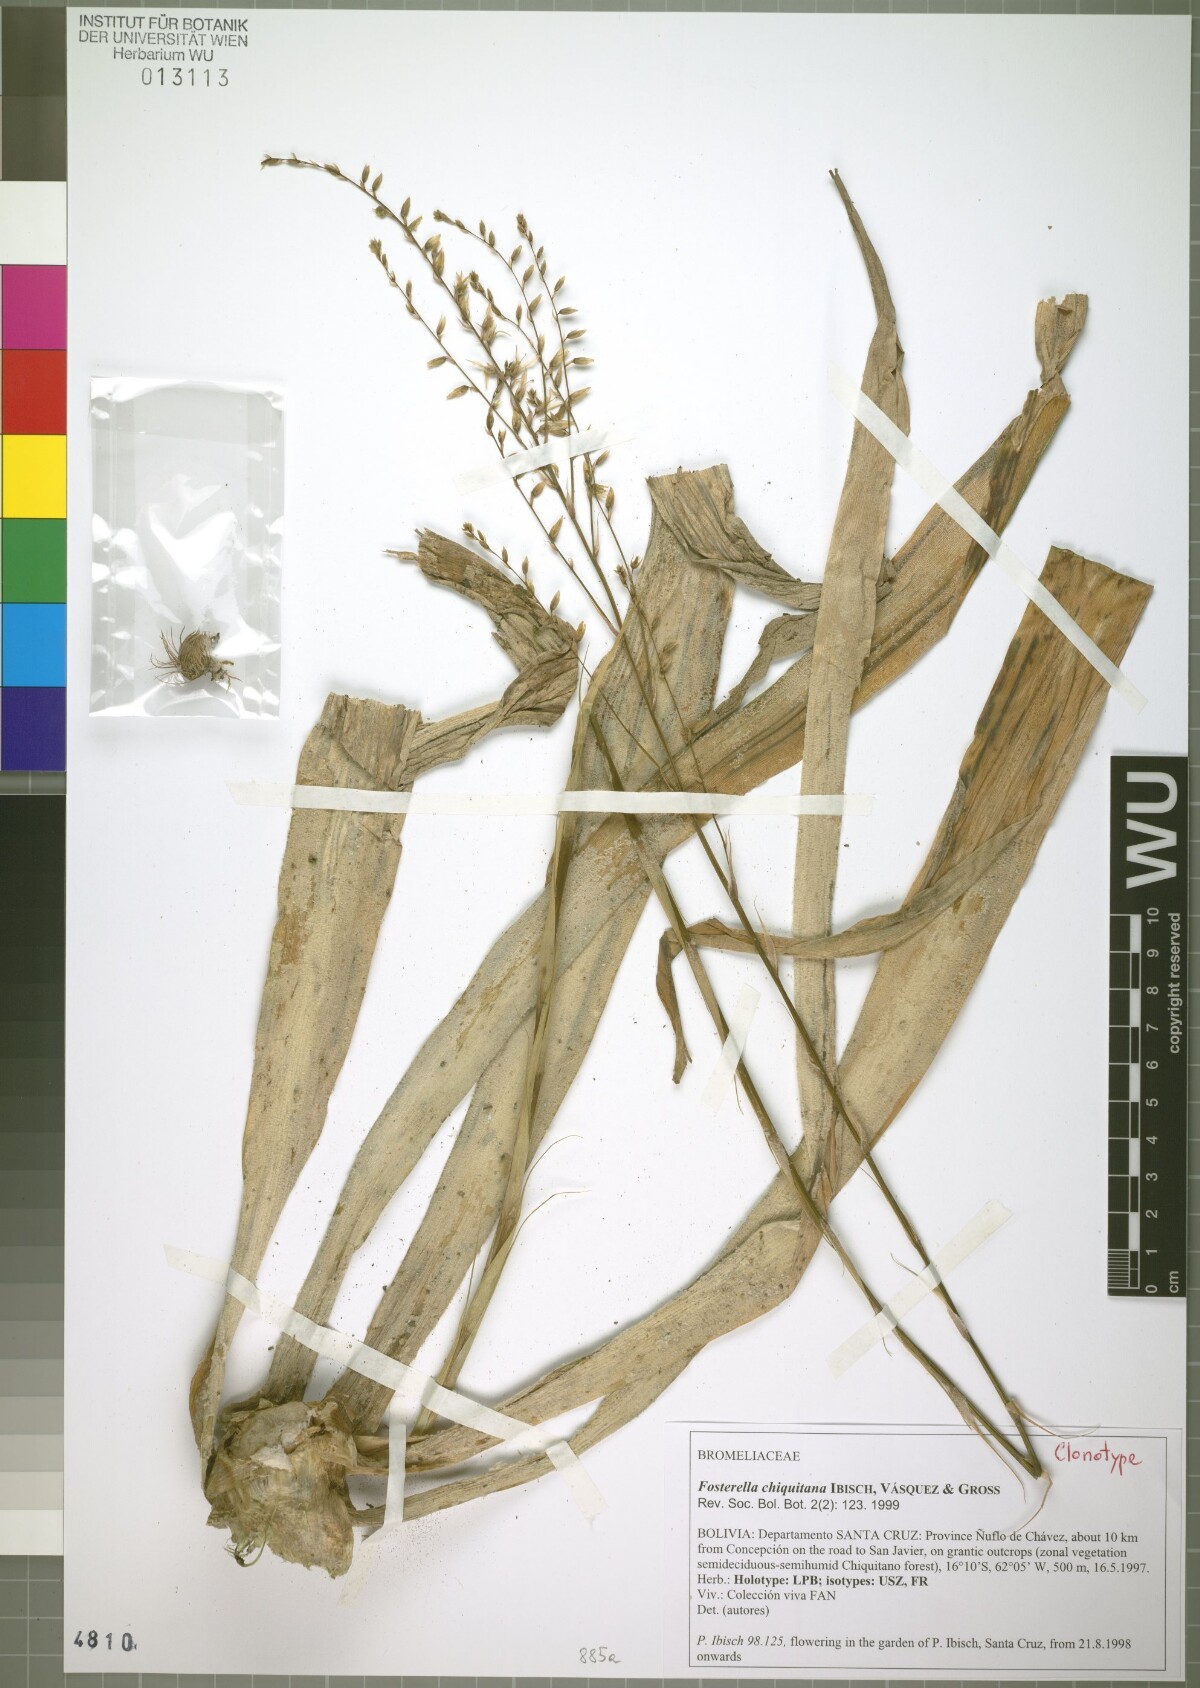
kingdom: Plantae
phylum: Tracheophyta
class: Liliopsida
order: Poales
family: Bromeliaceae
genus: Fosterella
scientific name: Fosterella penduliflora
